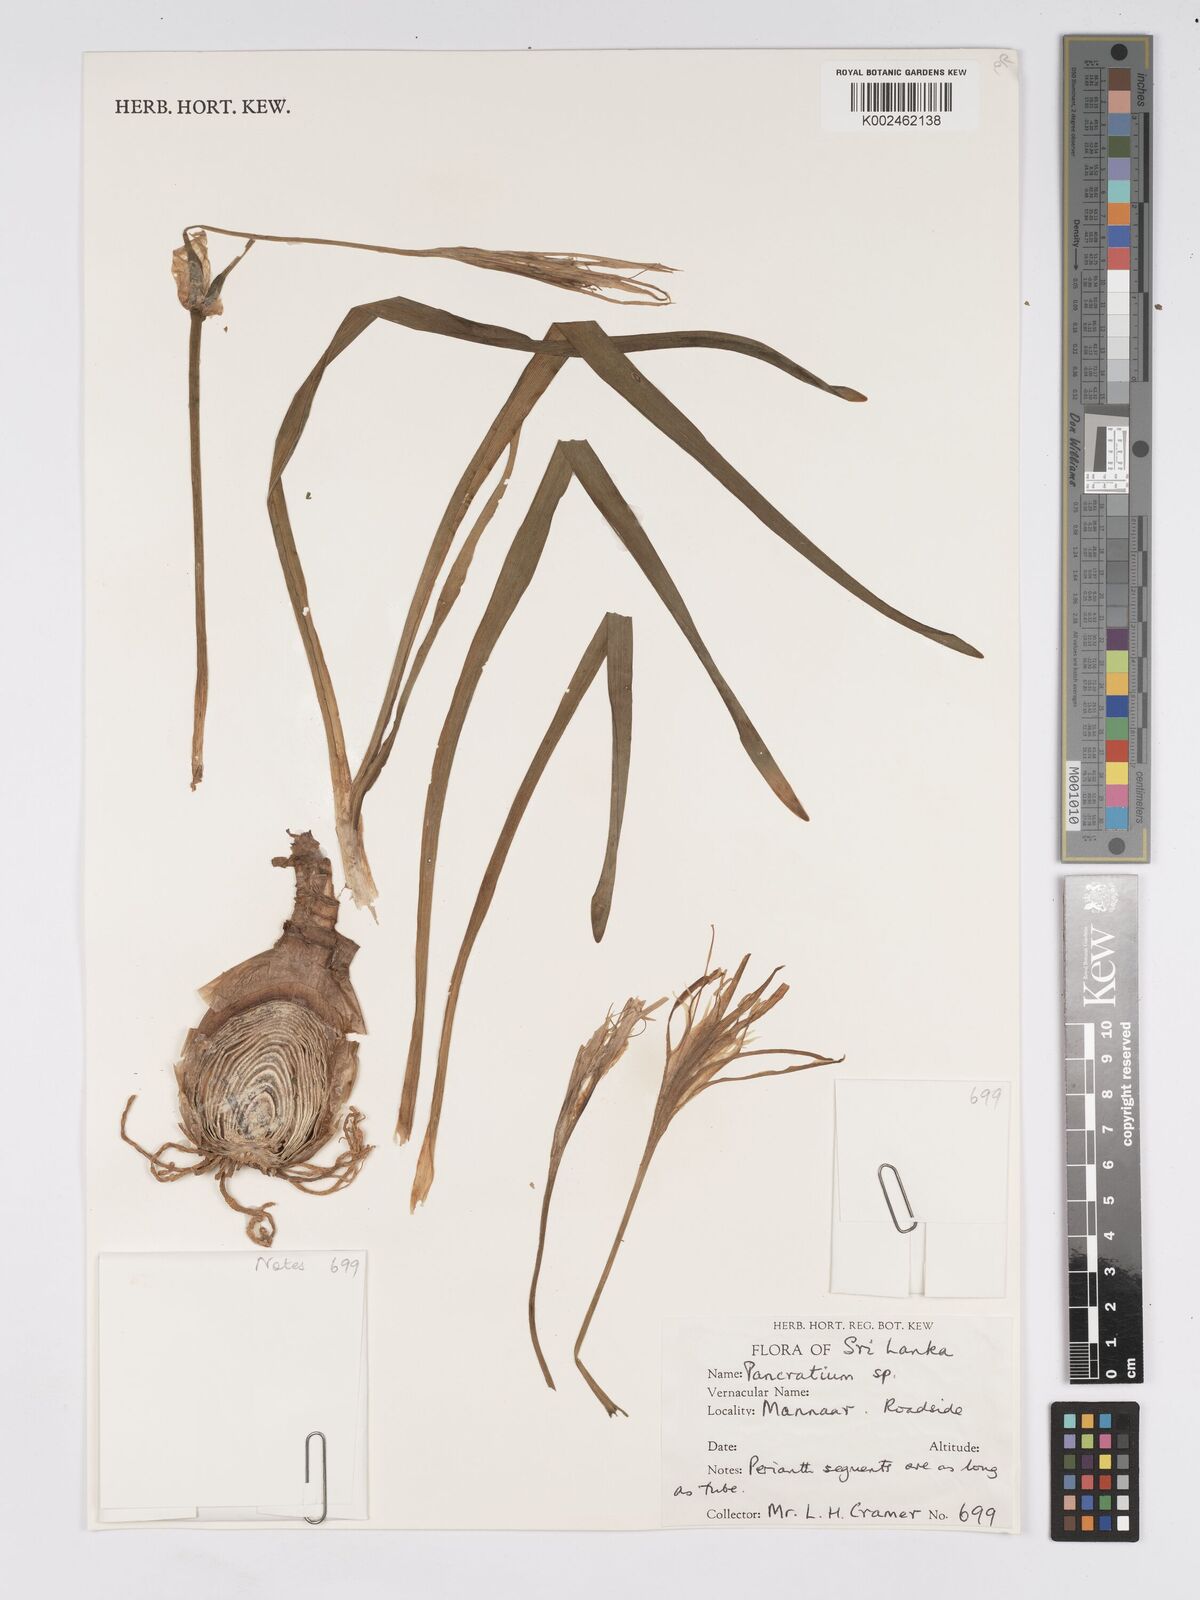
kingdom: Plantae
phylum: Tracheophyta
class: Liliopsida
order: Asparagales
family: Amaryllidaceae
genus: Pancratium
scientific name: Pancratium biflorum
